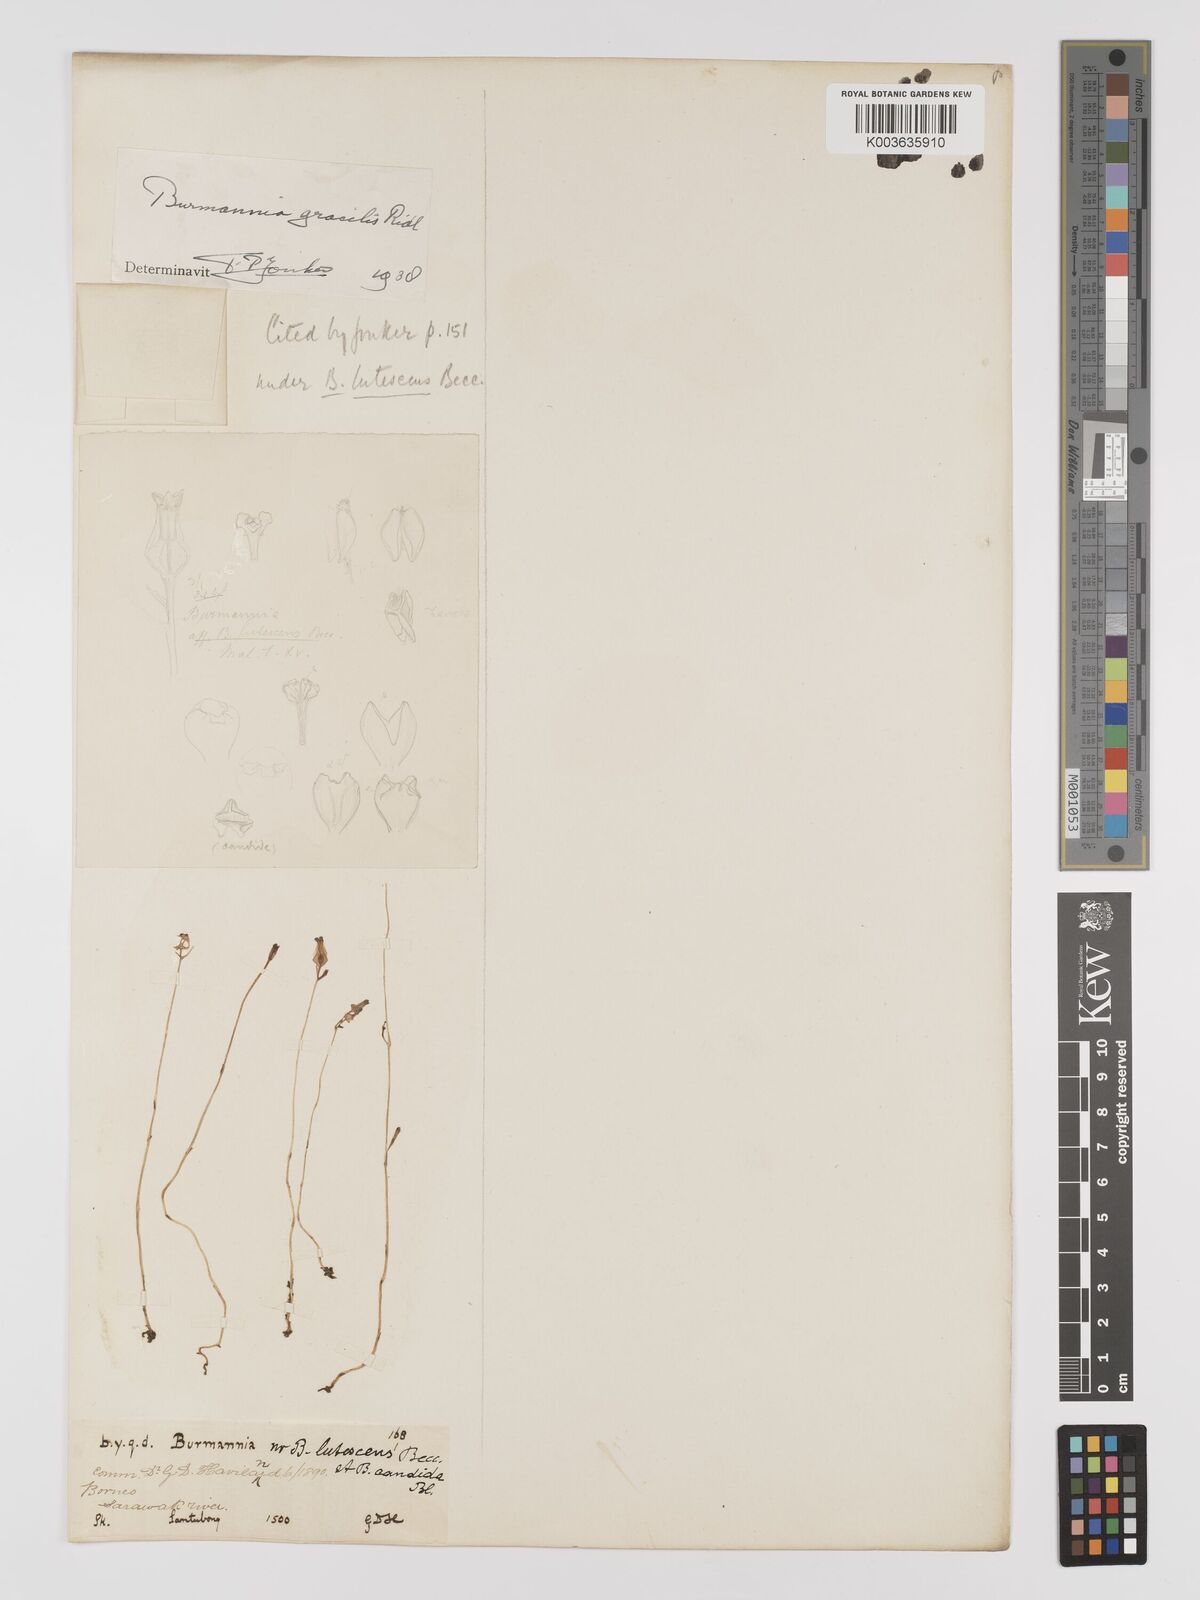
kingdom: Plantae
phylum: Tracheophyta
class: Liliopsida
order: Dioscoreales
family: Burmanniaceae
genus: Burmannia
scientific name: Burmannia lutescens
